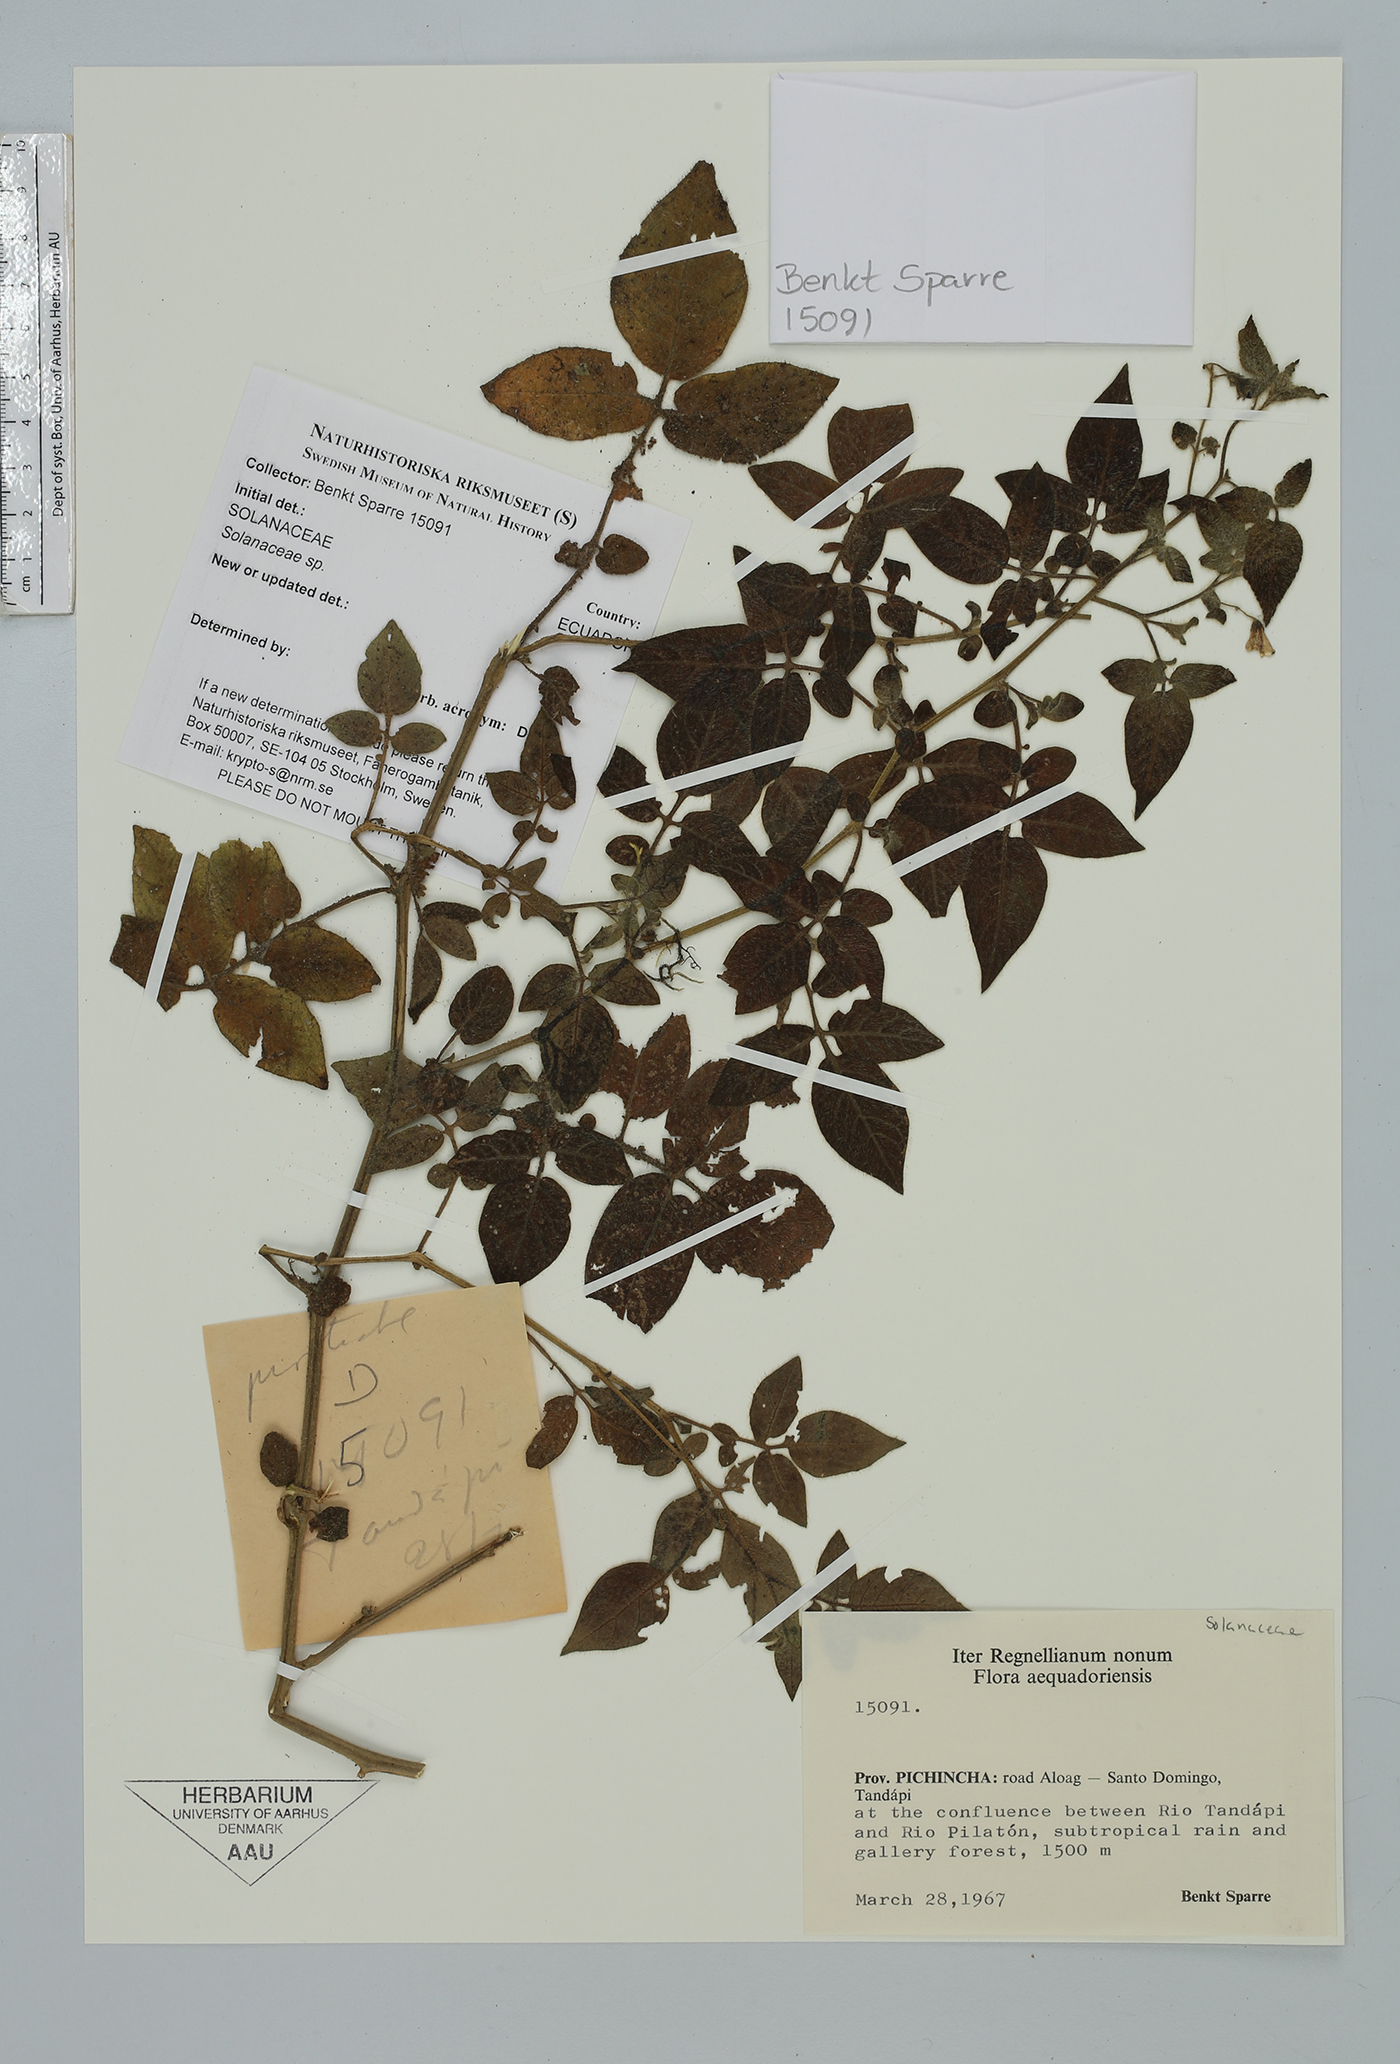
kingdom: Plantae
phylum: Tracheophyta
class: Magnoliopsida
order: Solanales
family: Solanaceae
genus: Solanum
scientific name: Solanum
